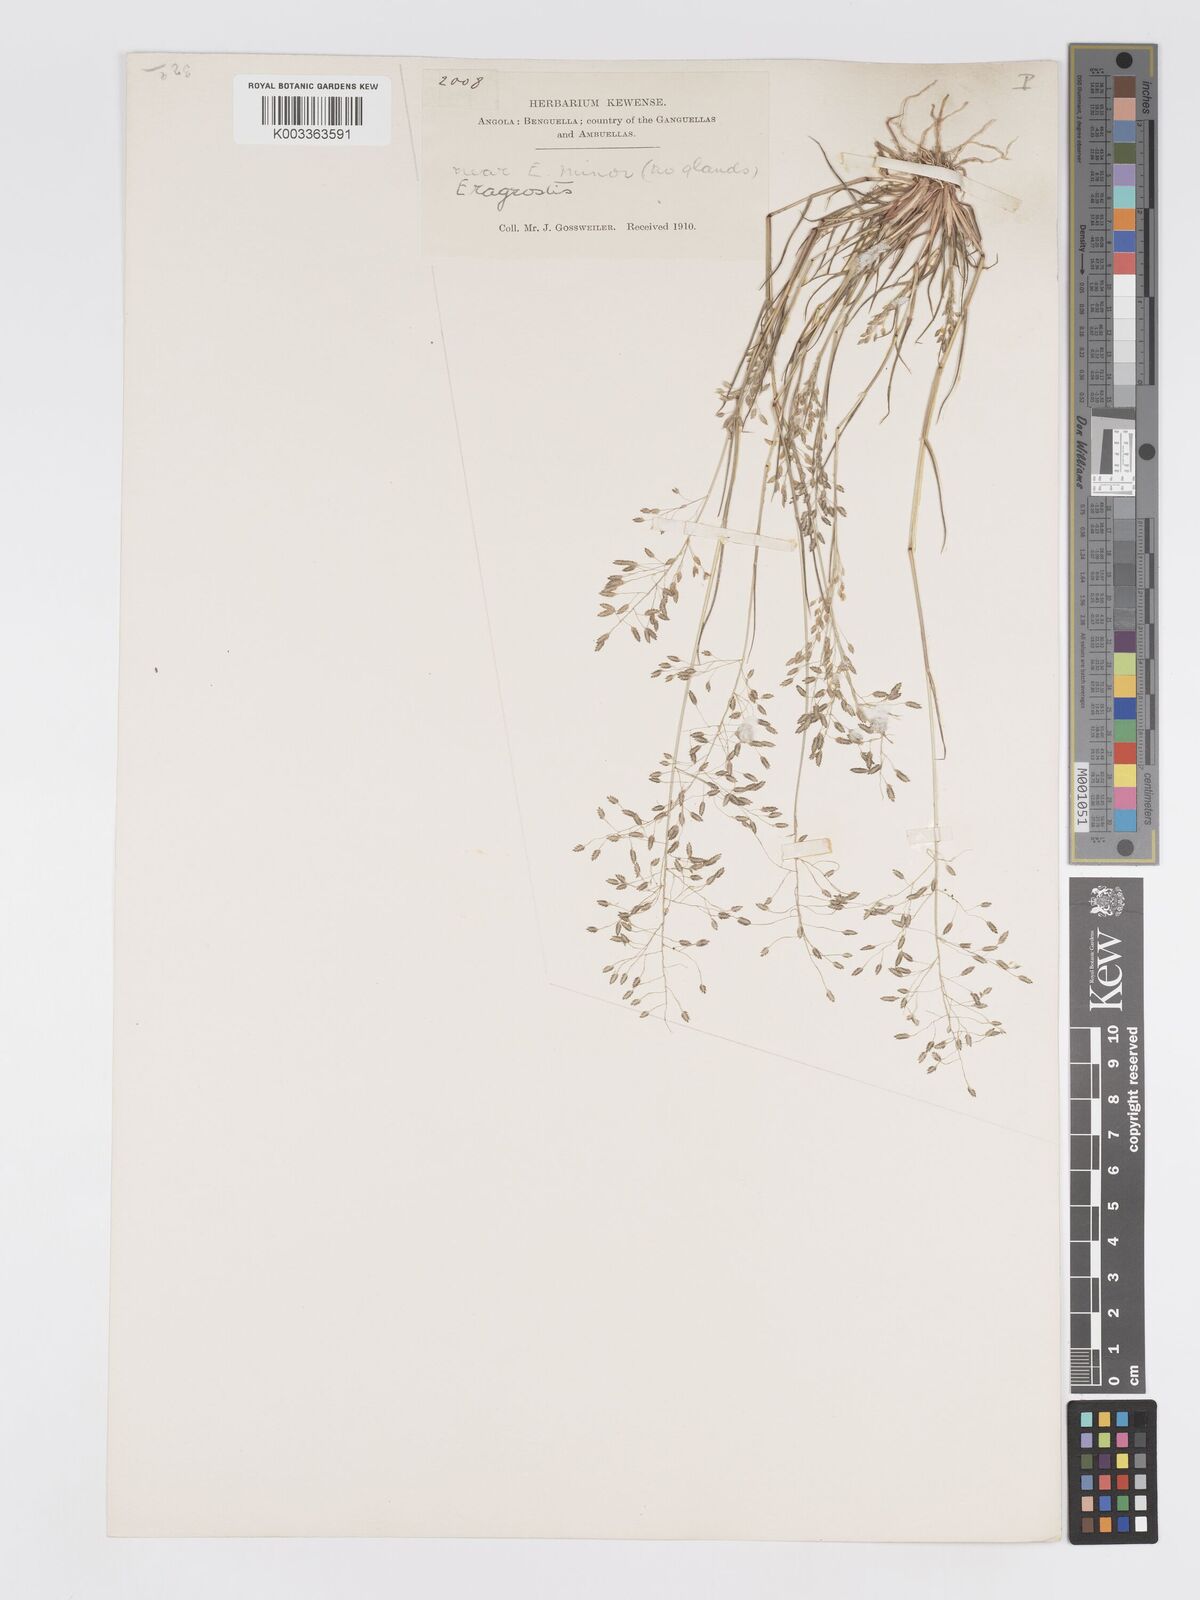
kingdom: Plantae
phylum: Tracheophyta
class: Liliopsida
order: Poales
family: Poaceae
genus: Eragrostis
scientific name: Eragrostis barrelieri
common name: Mediterranean lovegrass
